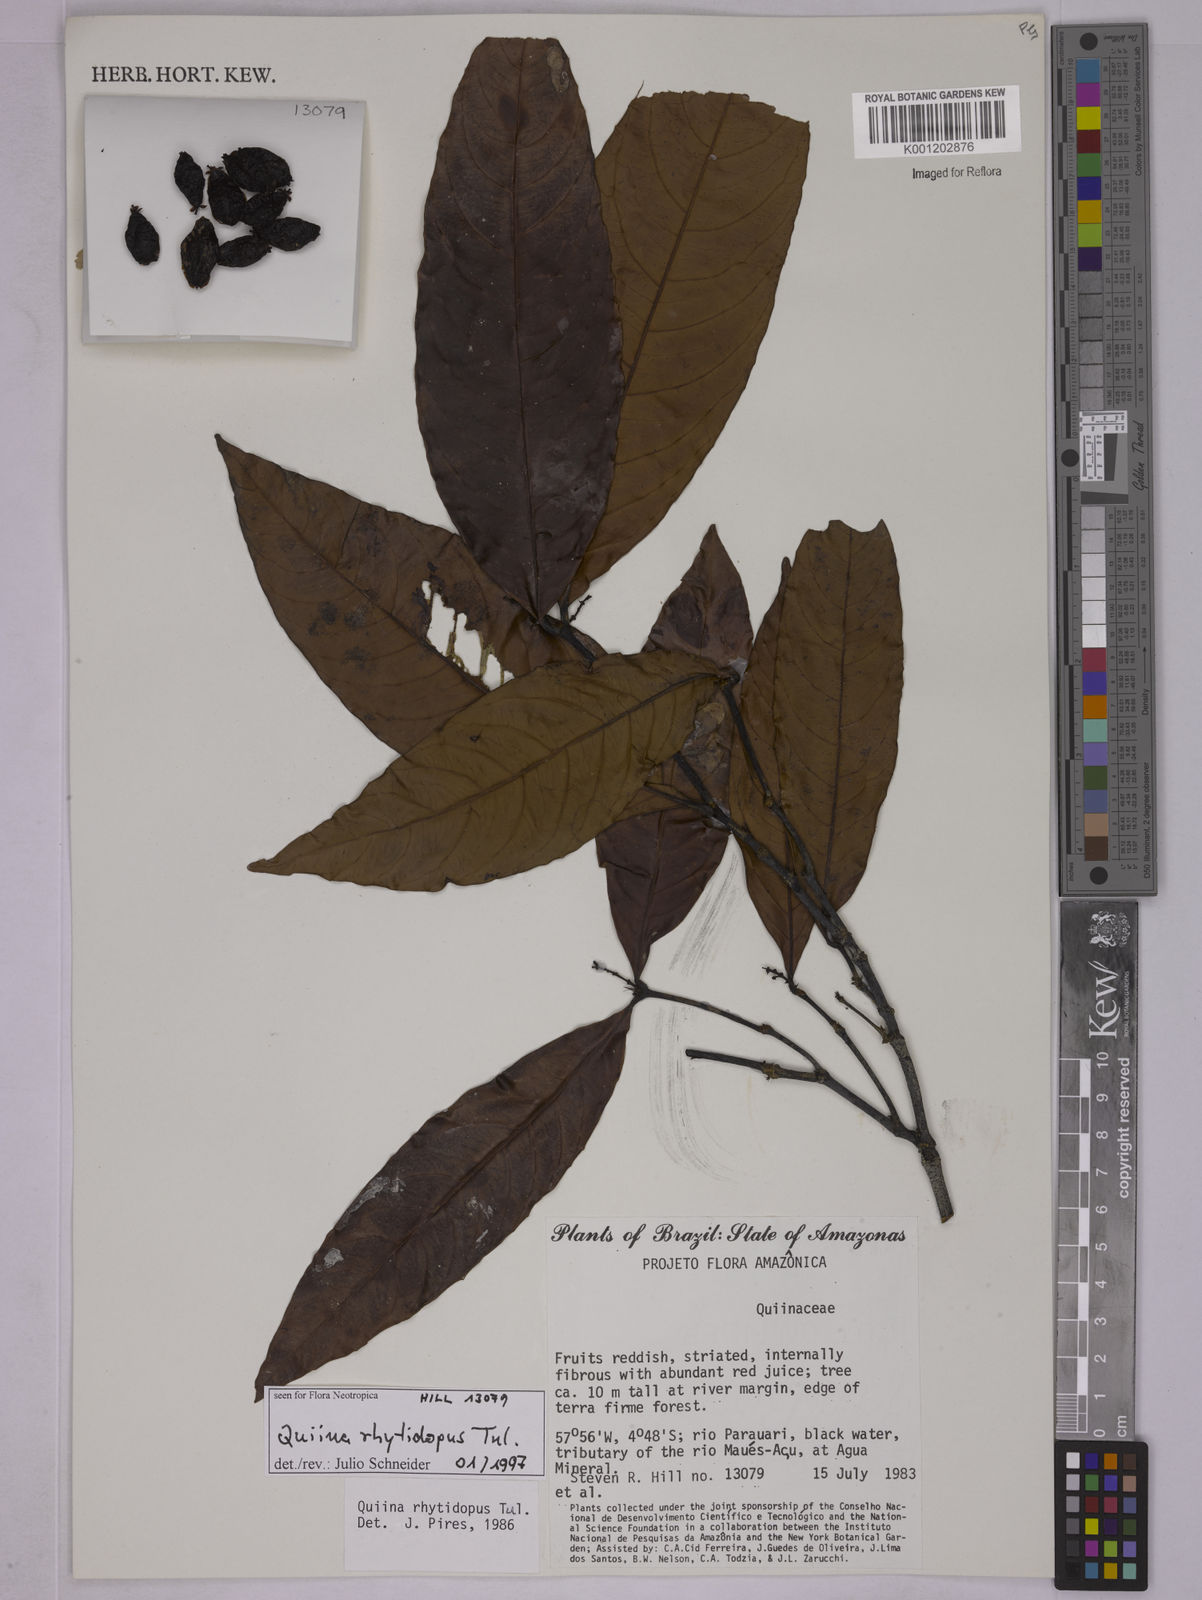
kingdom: Plantae
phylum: Tracheophyta
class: Magnoliopsida
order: Malpighiales
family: Quiinaceae
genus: Quiina
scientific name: Quiina rhytidopus
